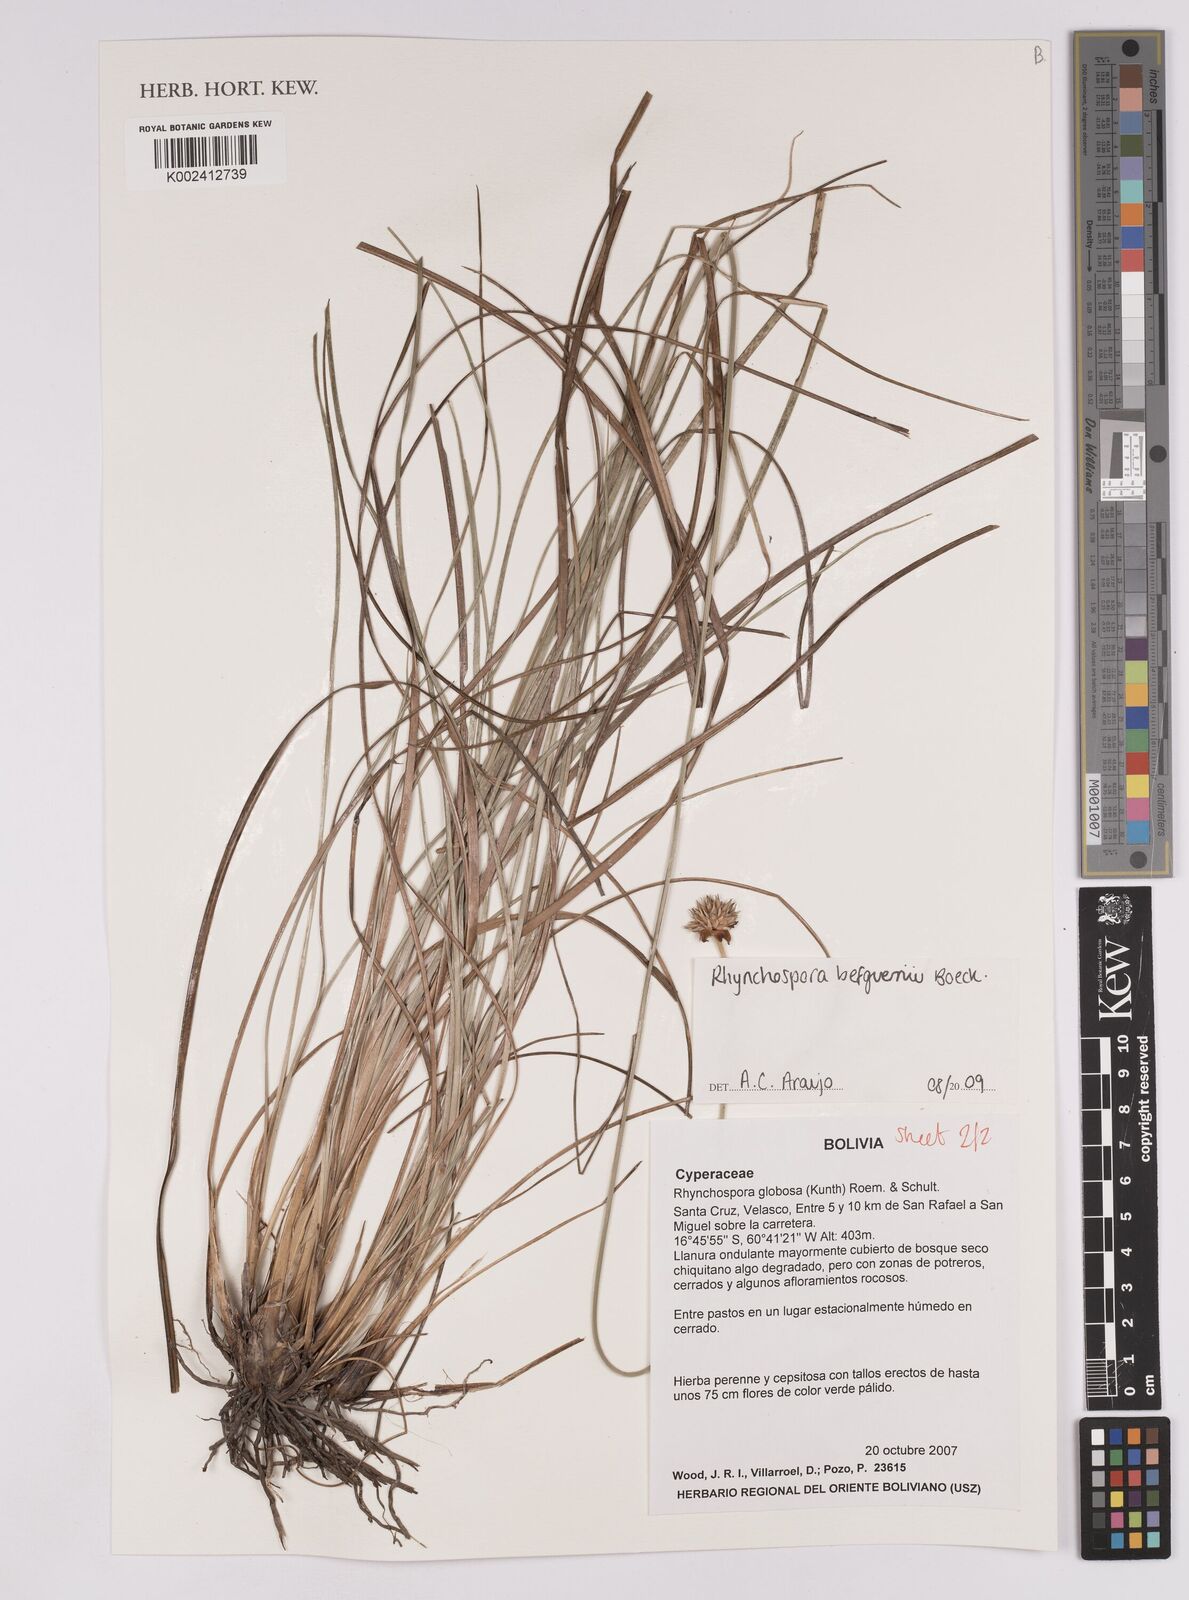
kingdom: Plantae
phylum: Tracheophyta
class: Liliopsida
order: Poales
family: Cyperaceae
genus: Rhynchospora
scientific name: Rhynchospora loefgrenii
